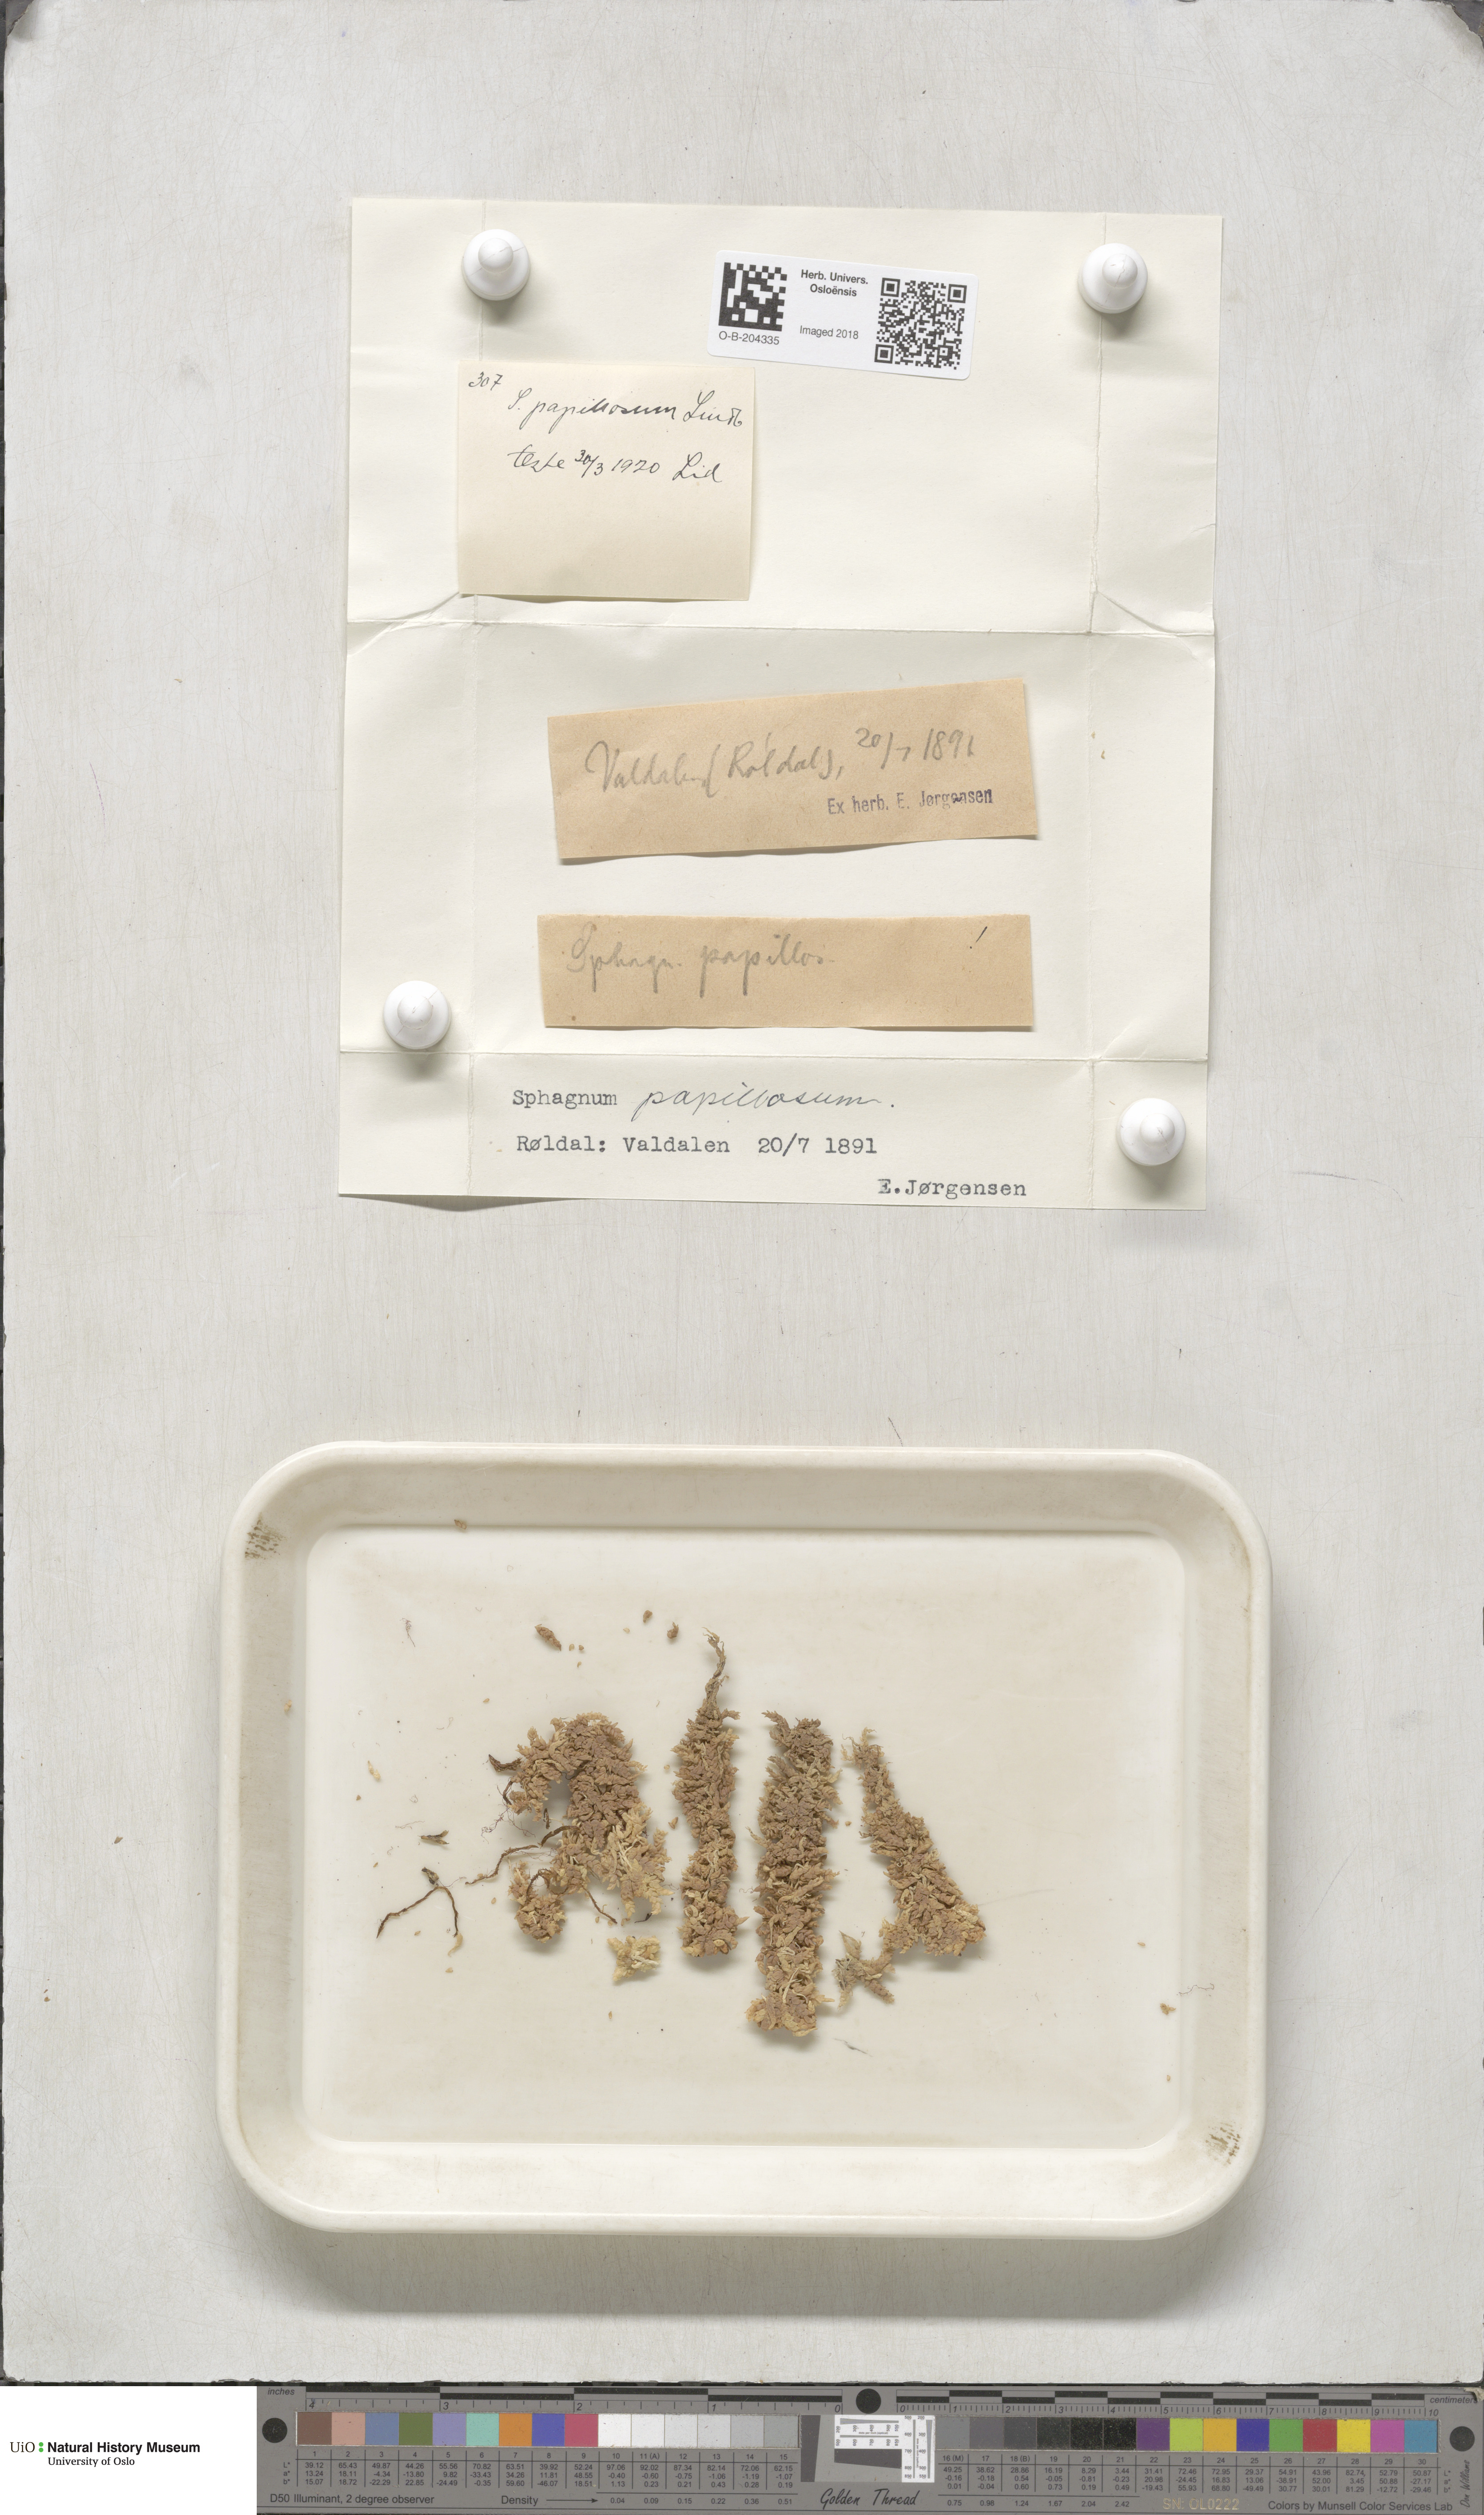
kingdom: Plantae
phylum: Bryophyta
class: Sphagnopsida
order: Sphagnales
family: Sphagnaceae
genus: Sphagnum
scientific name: Sphagnum papillosum
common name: Papillose peat moss
